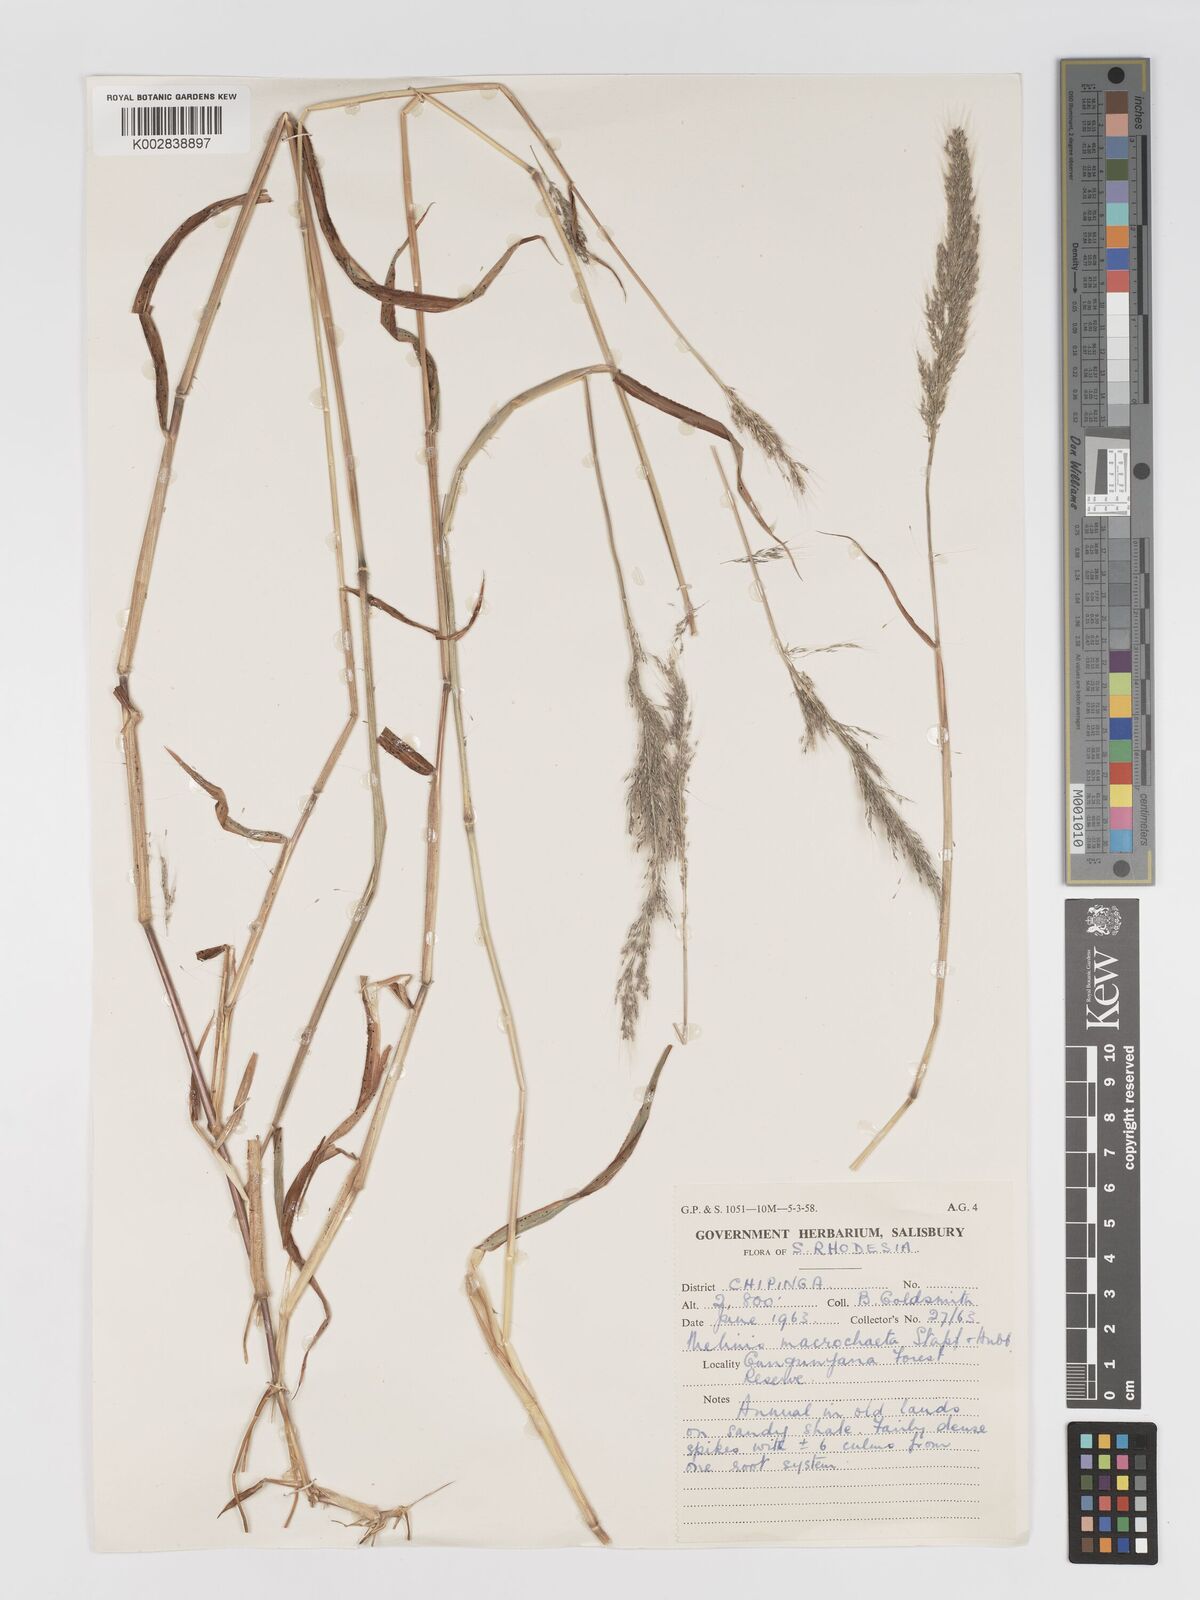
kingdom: Plantae
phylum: Tracheophyta
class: Liliopsida
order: Poales
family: Poaceae
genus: Melinis
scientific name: Melinis macrochaeta
